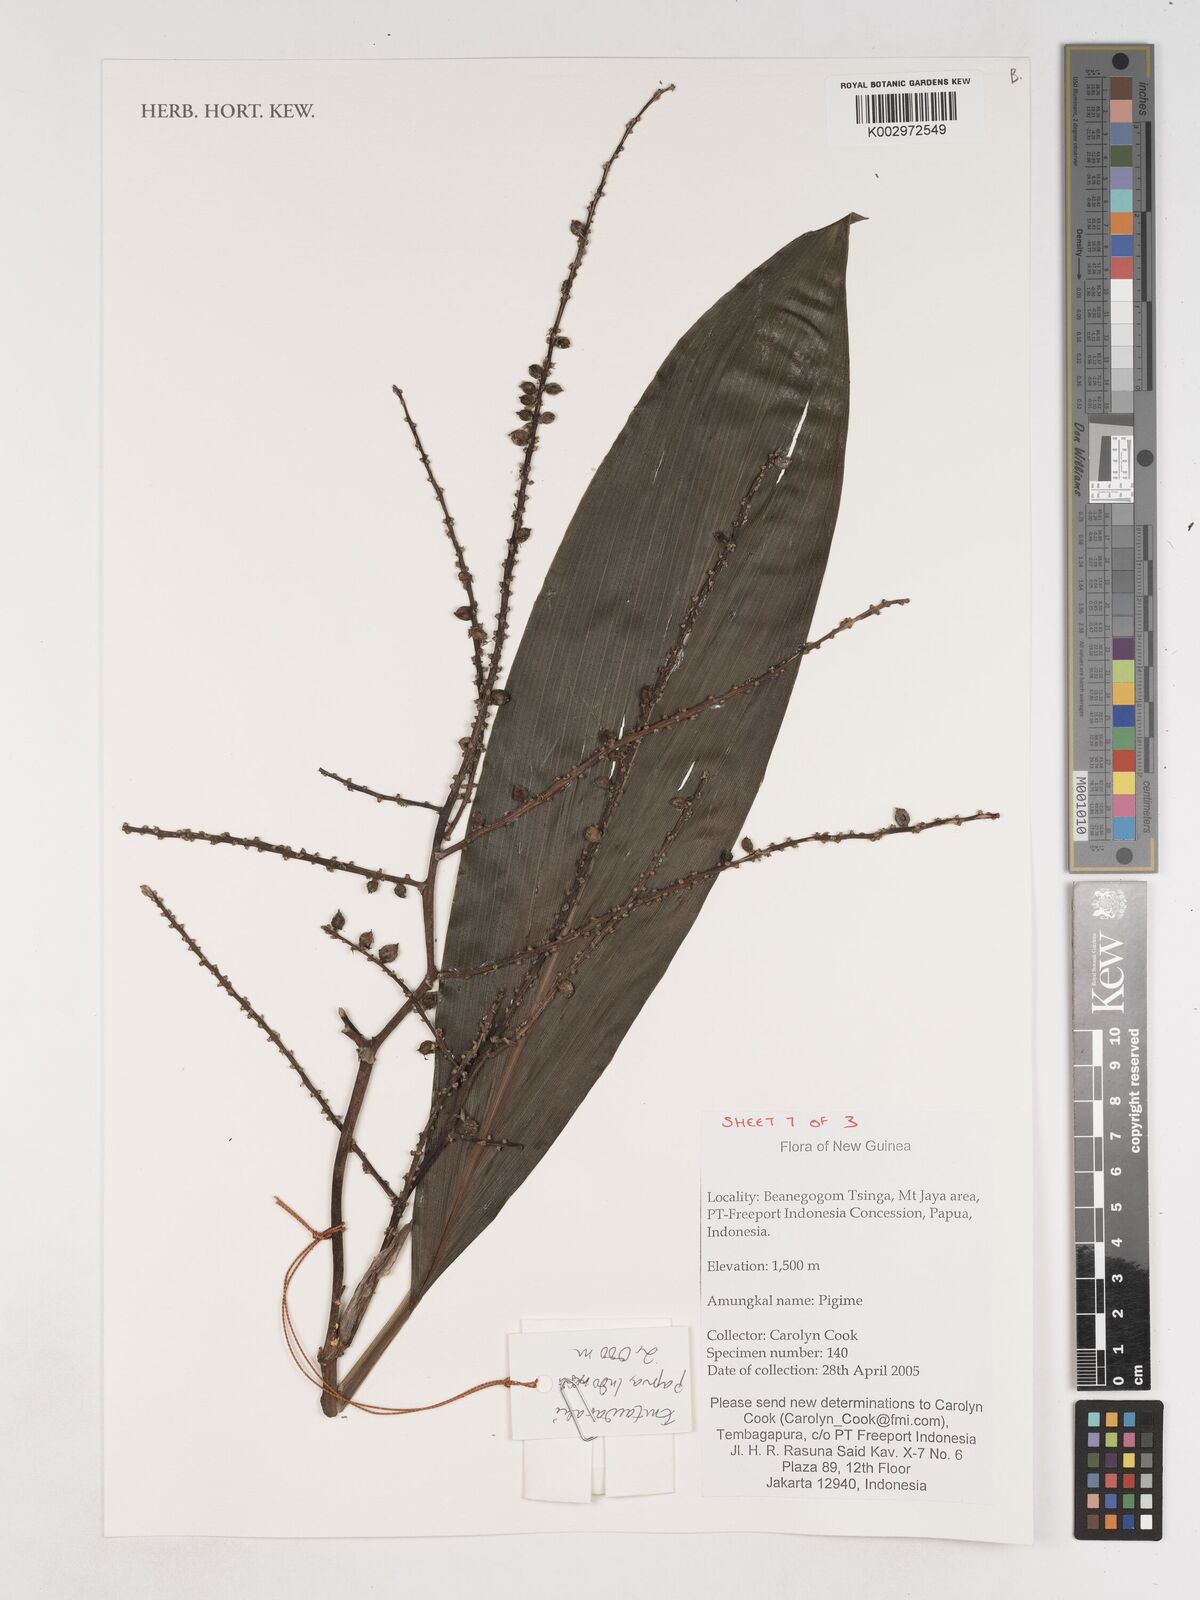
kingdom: Plantae
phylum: Tracheophyta
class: Liliopsida
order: Asparagales
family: Asparagaceae
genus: Cordyline
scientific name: Cordyline
